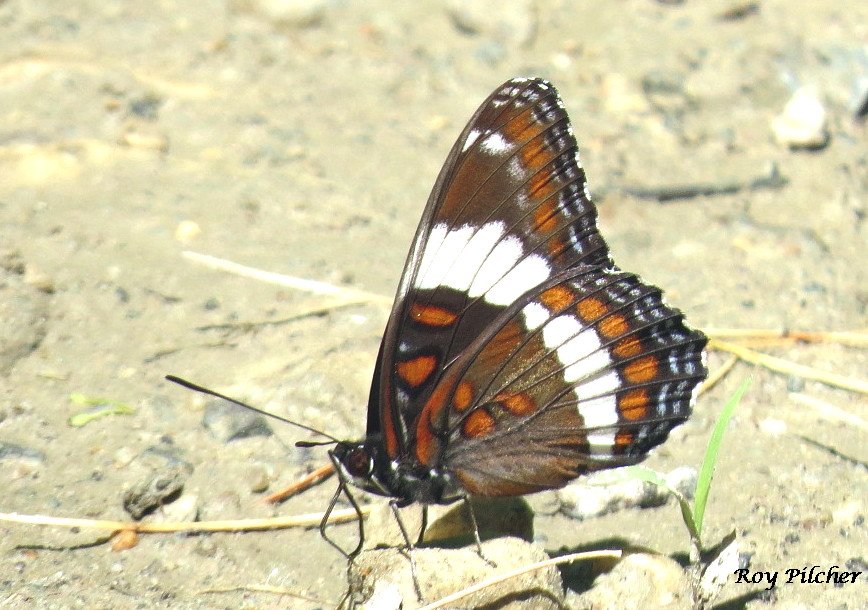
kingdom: Animalia
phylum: Arthropoda
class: Insecta
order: Lepidoptera
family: Nymphalidae
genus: Limenitis
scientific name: Limenitis arthemis
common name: Red-spotted Admiral
